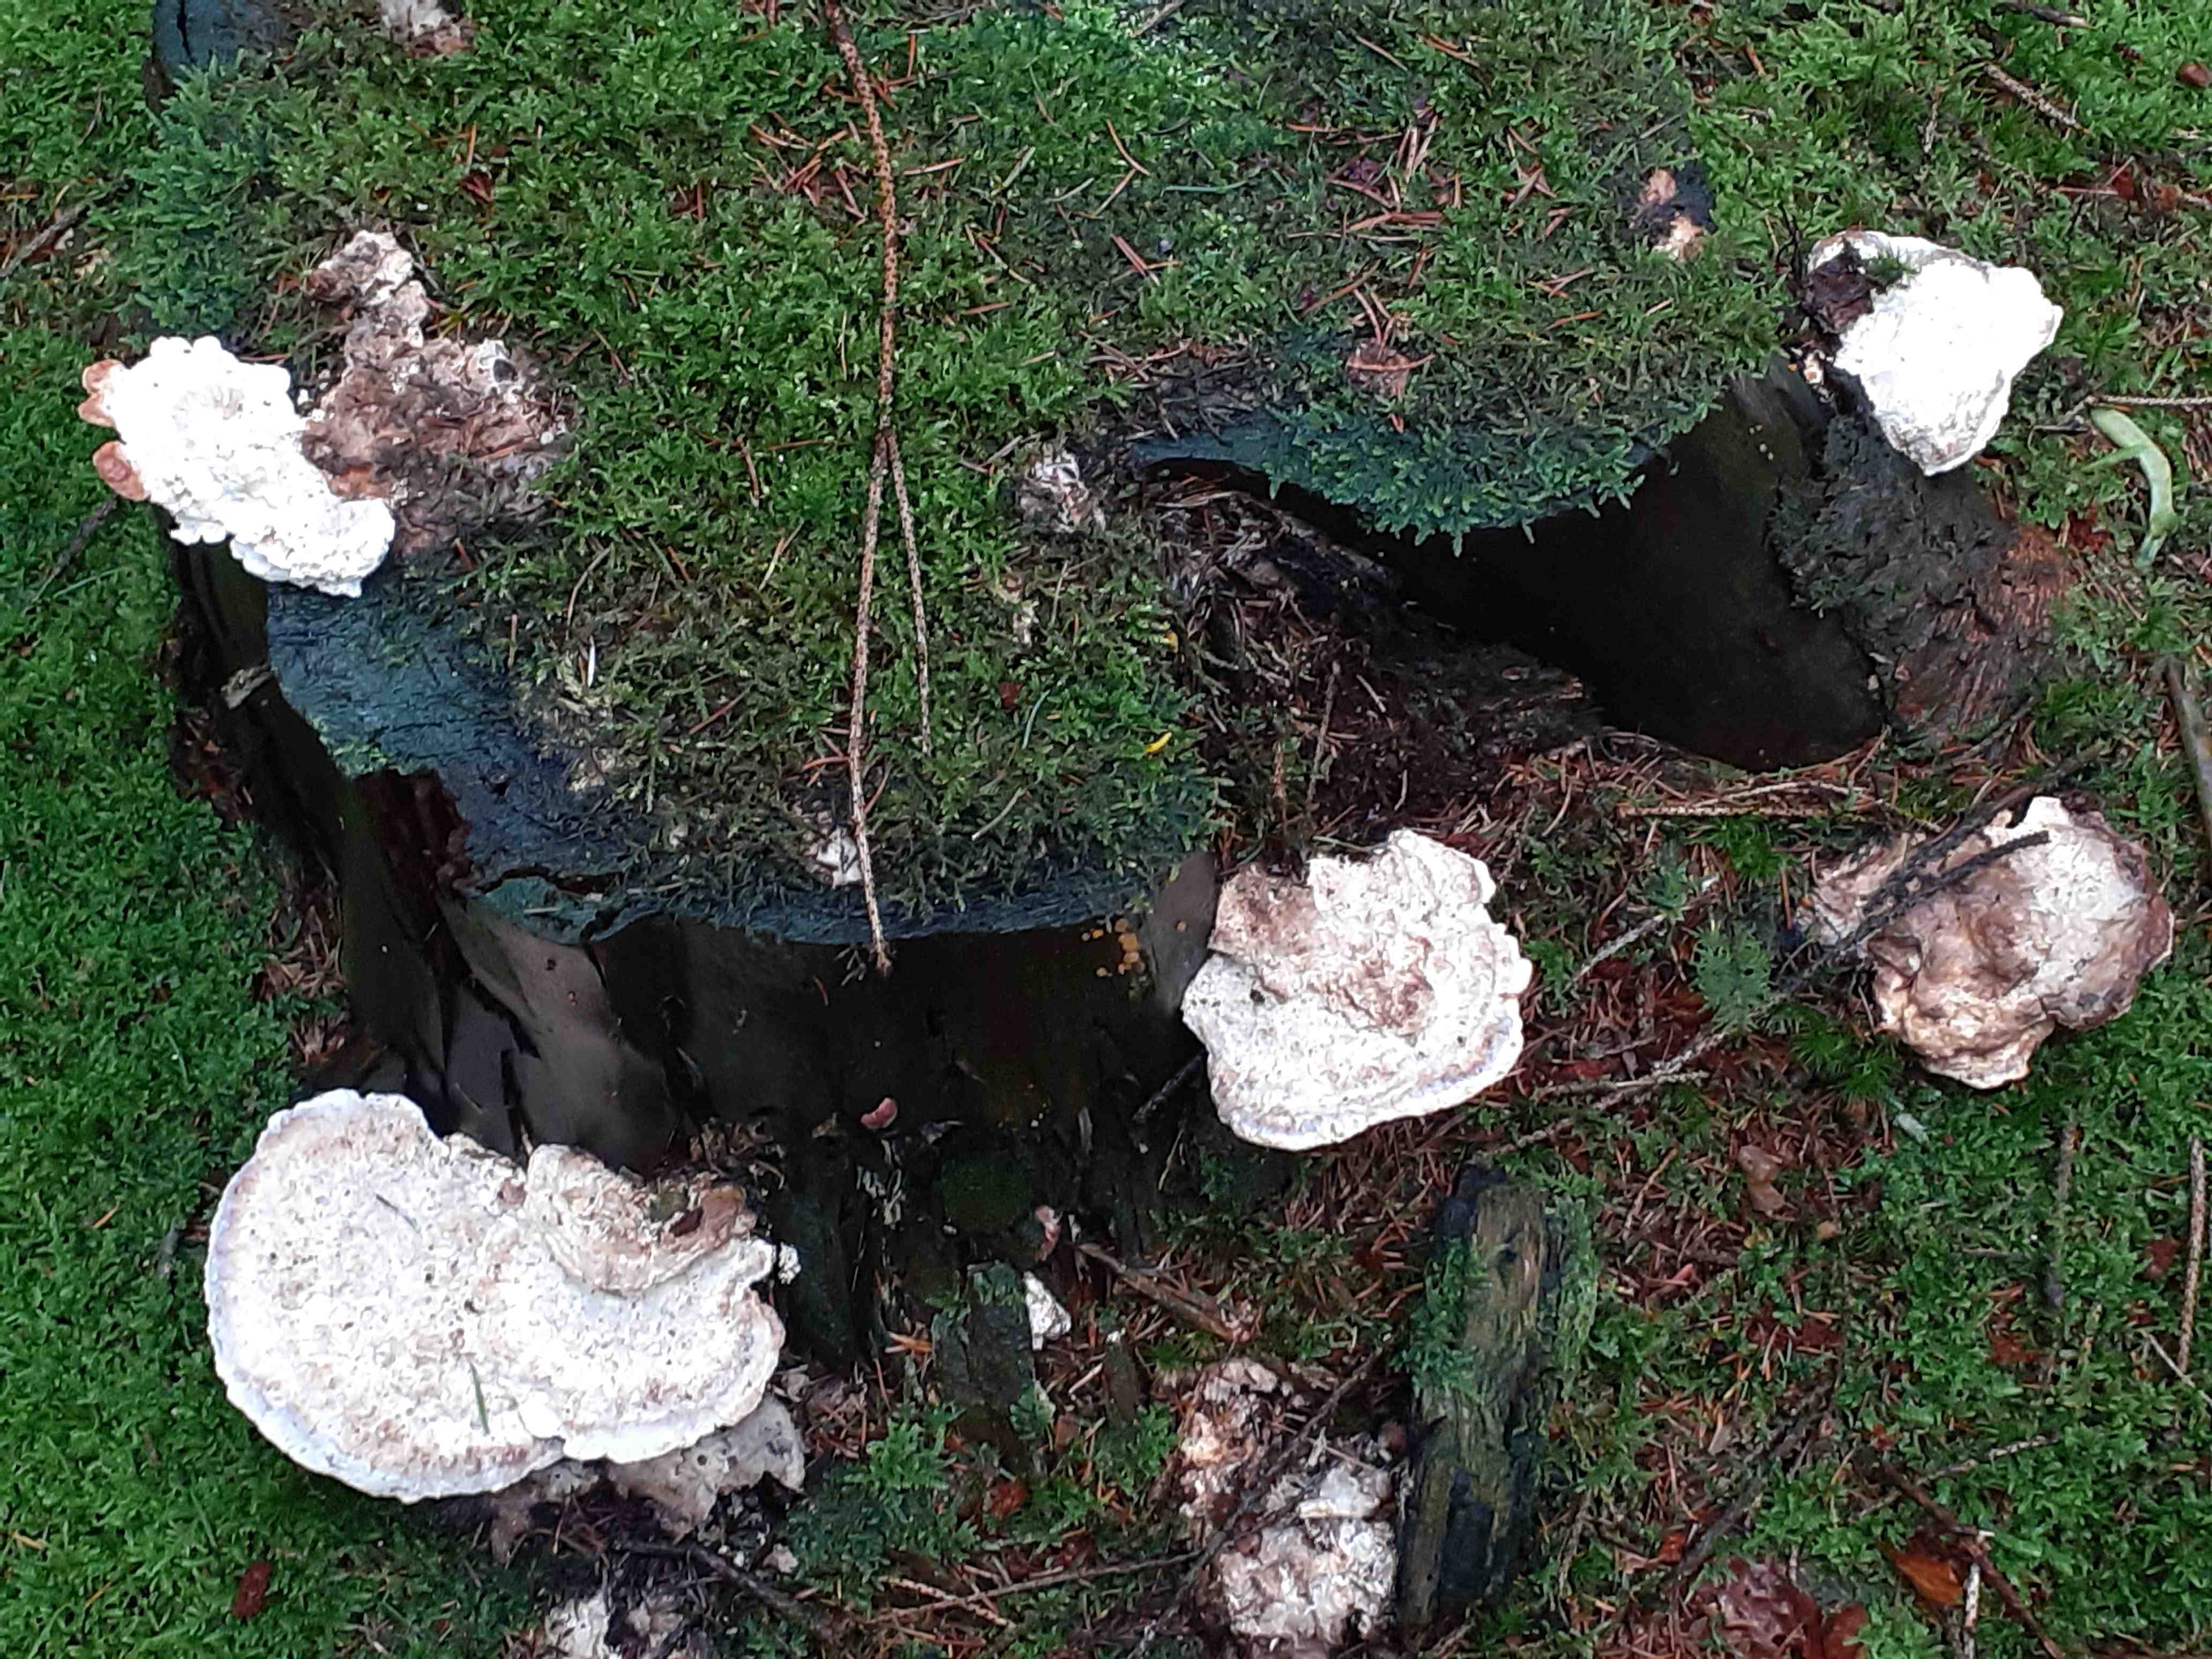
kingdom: Fungi
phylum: Basidiomycota
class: Agaricomycetes
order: Polyporales
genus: Calcipostia
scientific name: Calcipostia guttulata
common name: dråbe-kødporesvamp
